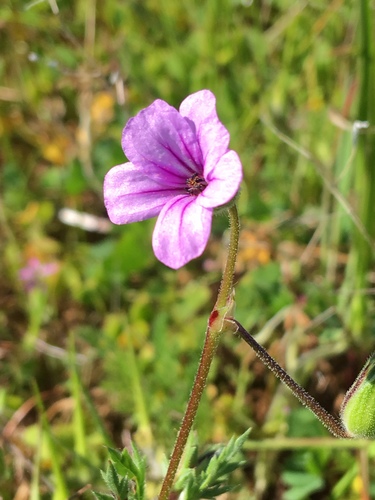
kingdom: Plantae
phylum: Tracheophyta
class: Magnoliopsida
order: Geraniales
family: Geraniaceae
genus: Erodium
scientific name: Erodium botrys
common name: Mediterranean stork's-bill
